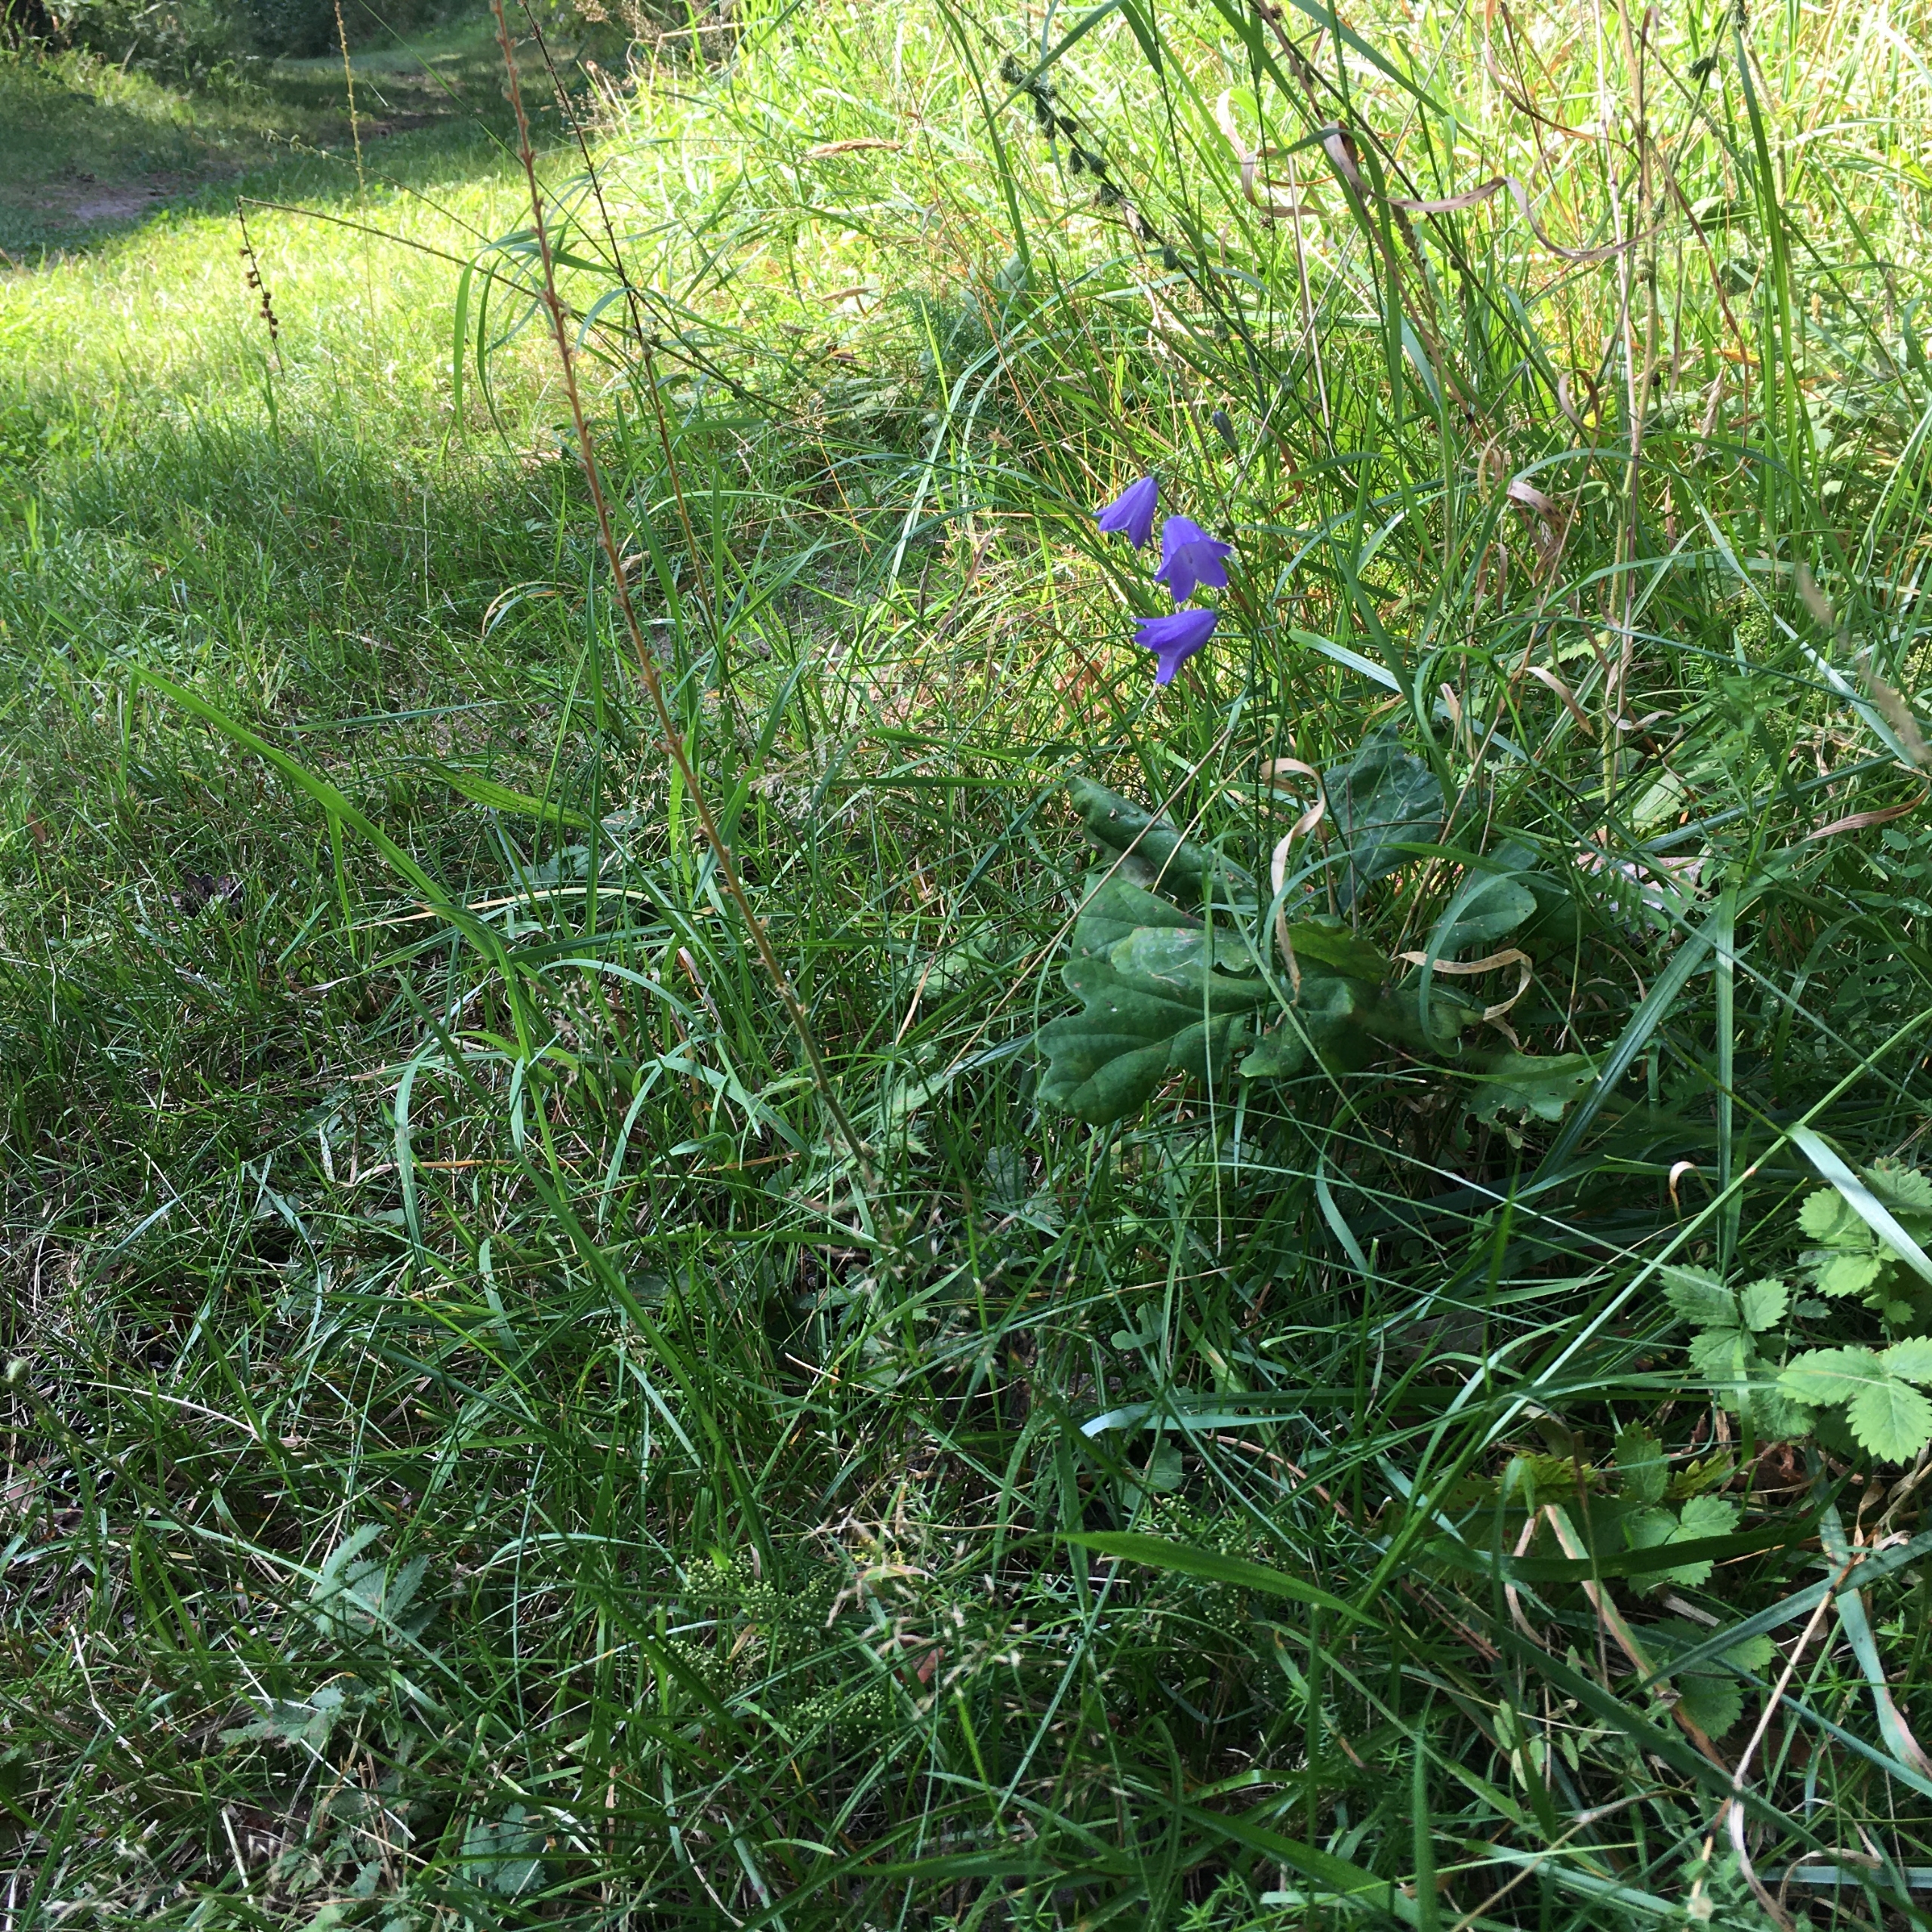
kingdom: Plantae
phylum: Tracheophyta
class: Magnoliopsida
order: Asterales
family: Campanulaceae
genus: Campanula
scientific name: Campanula rotundifolia
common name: Liden klokke
